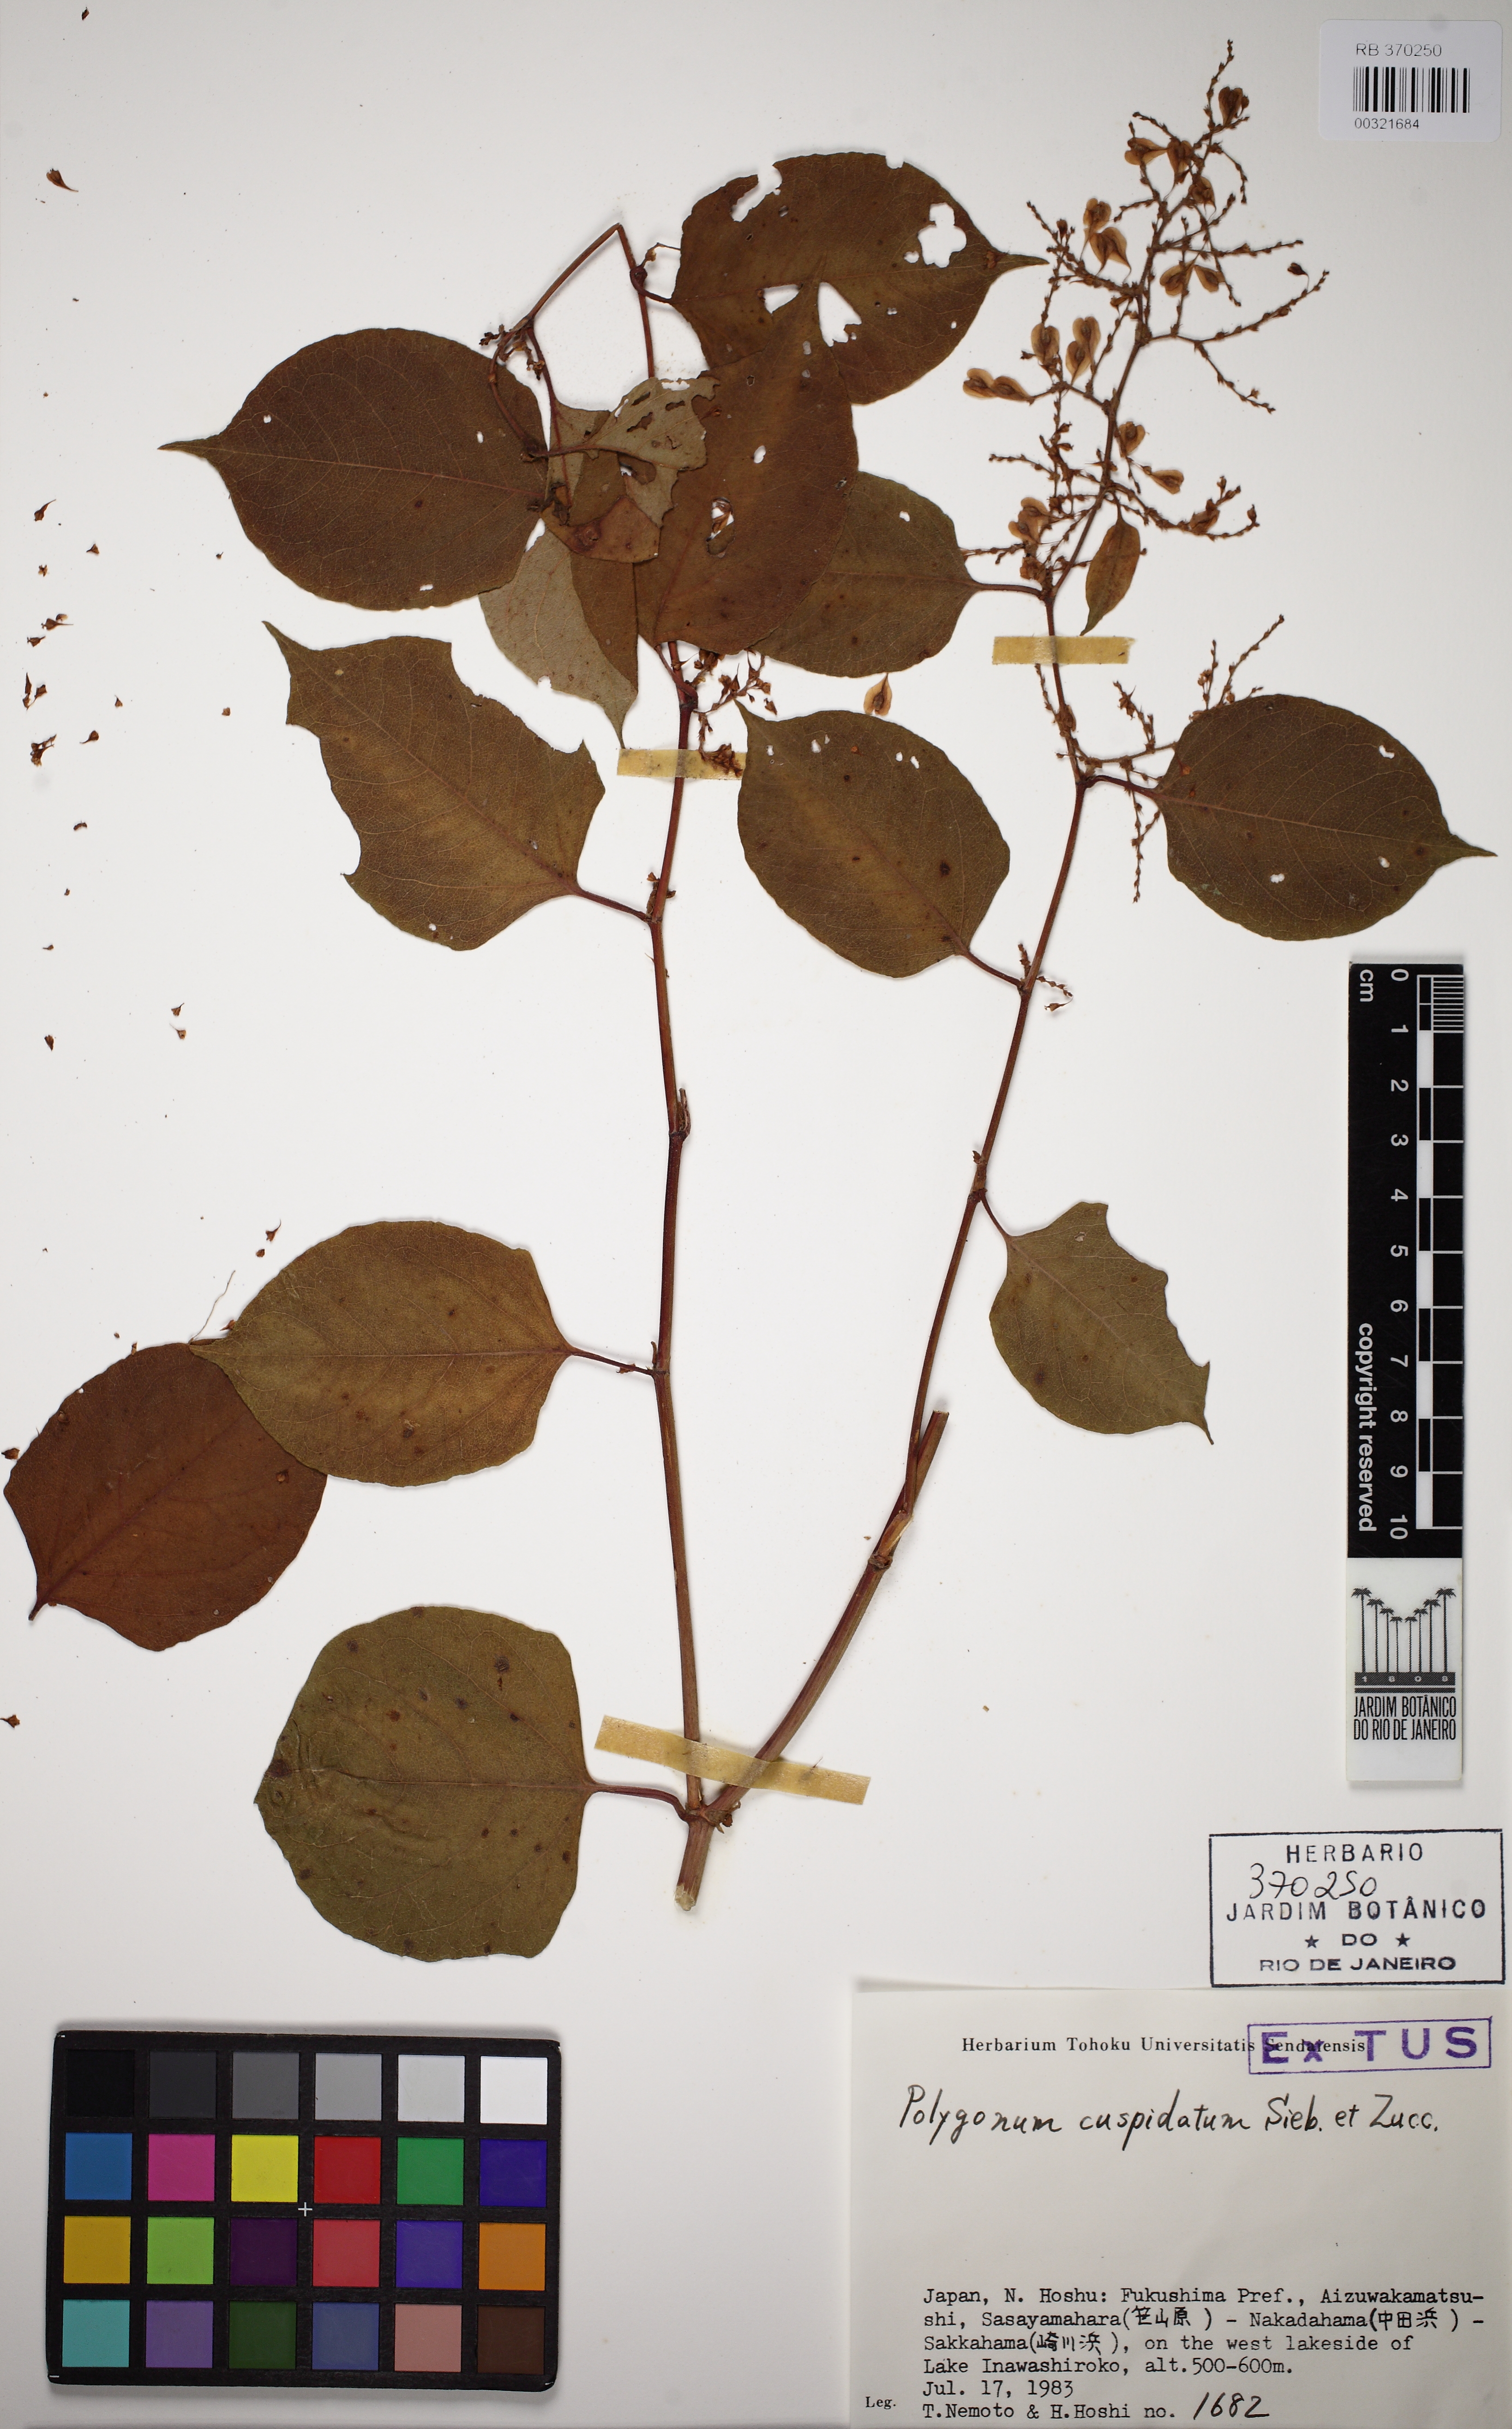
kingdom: Plantae
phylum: Tracheophyta
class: Magnoliopsida
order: Caryophyllales
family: Polygonaceae
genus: Reynoutria
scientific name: Reynoutria japonica
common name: Japanese knotweed
